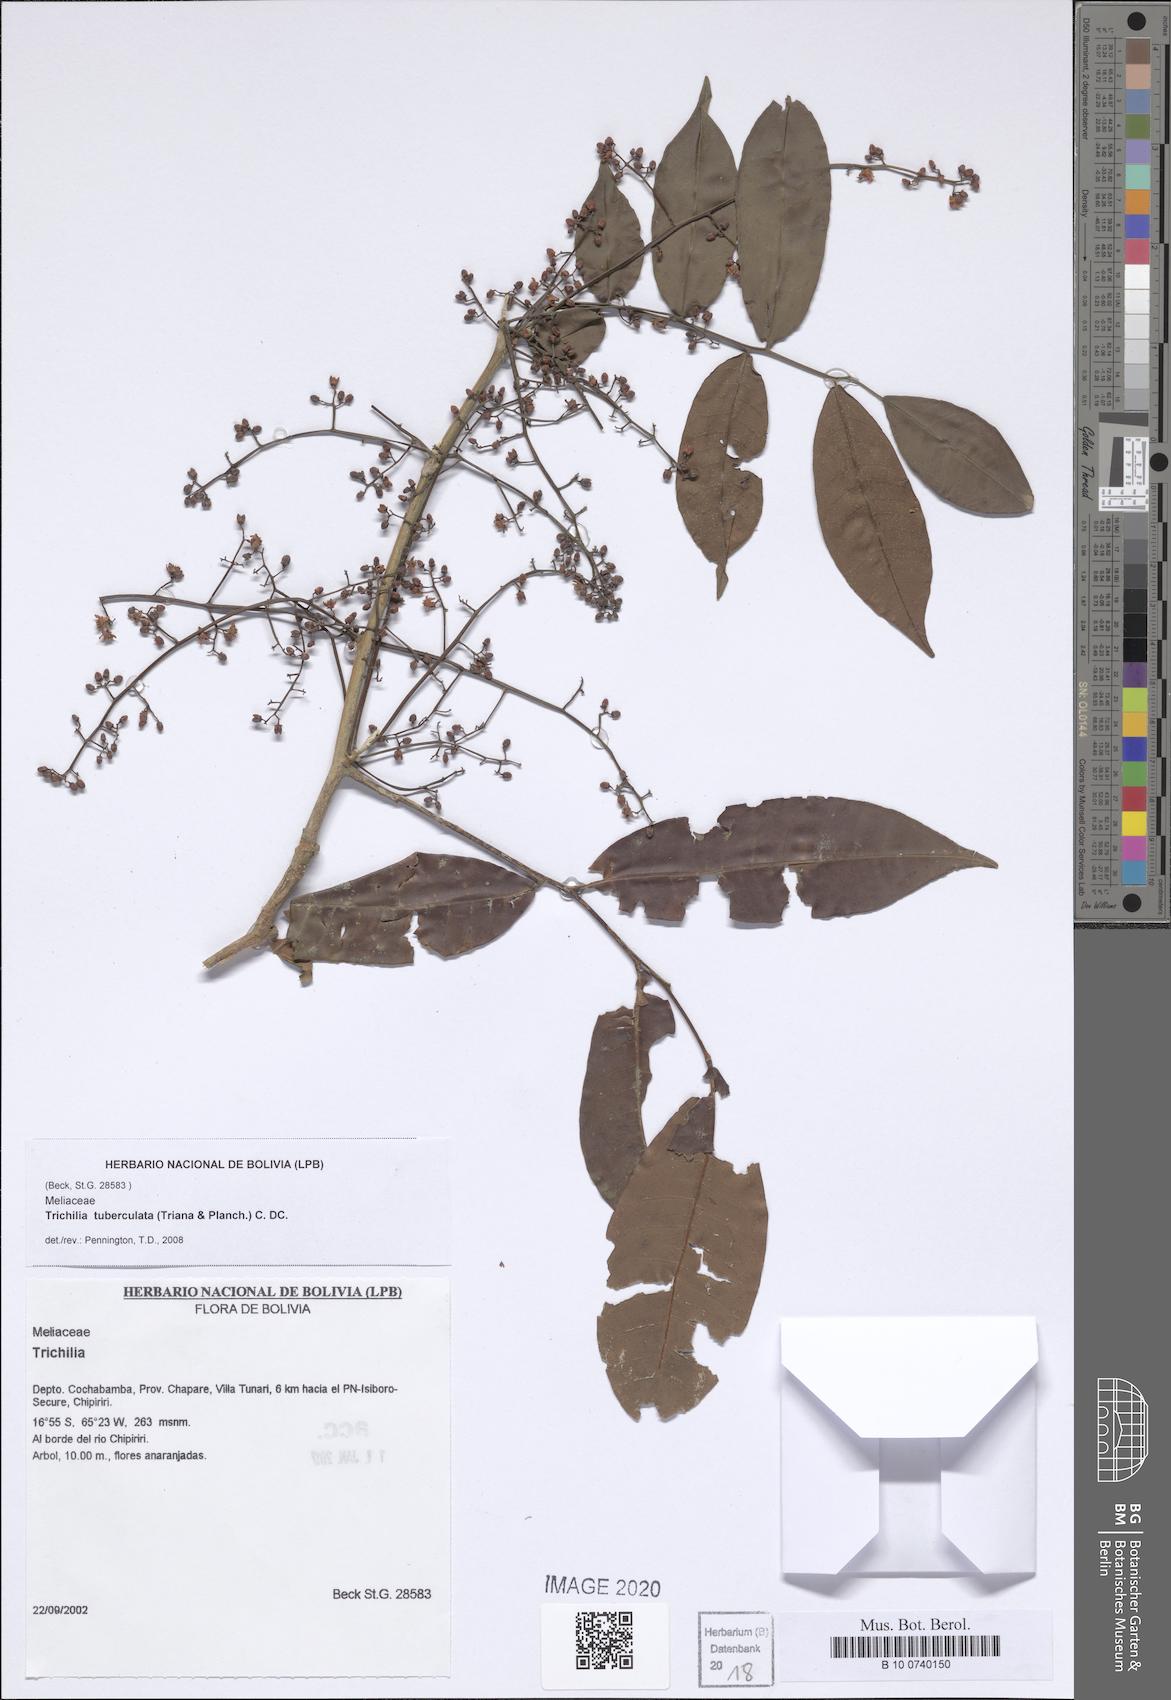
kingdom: Plantae
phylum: Tracheophyta
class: Magnoliopsida
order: Sapindales
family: Meliaceae
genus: Trichilia
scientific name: Trichilia tuberculata
